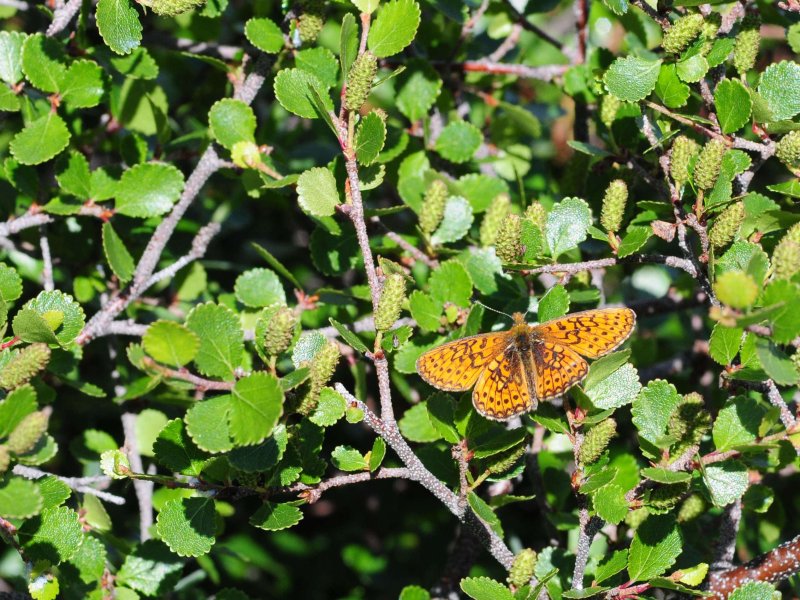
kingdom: Animalia
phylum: Arthropoda
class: Insecta
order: Lepidoptera
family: Nymphalidae
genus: Boloria
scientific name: Boloria eunomia
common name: Bog Fritillary
